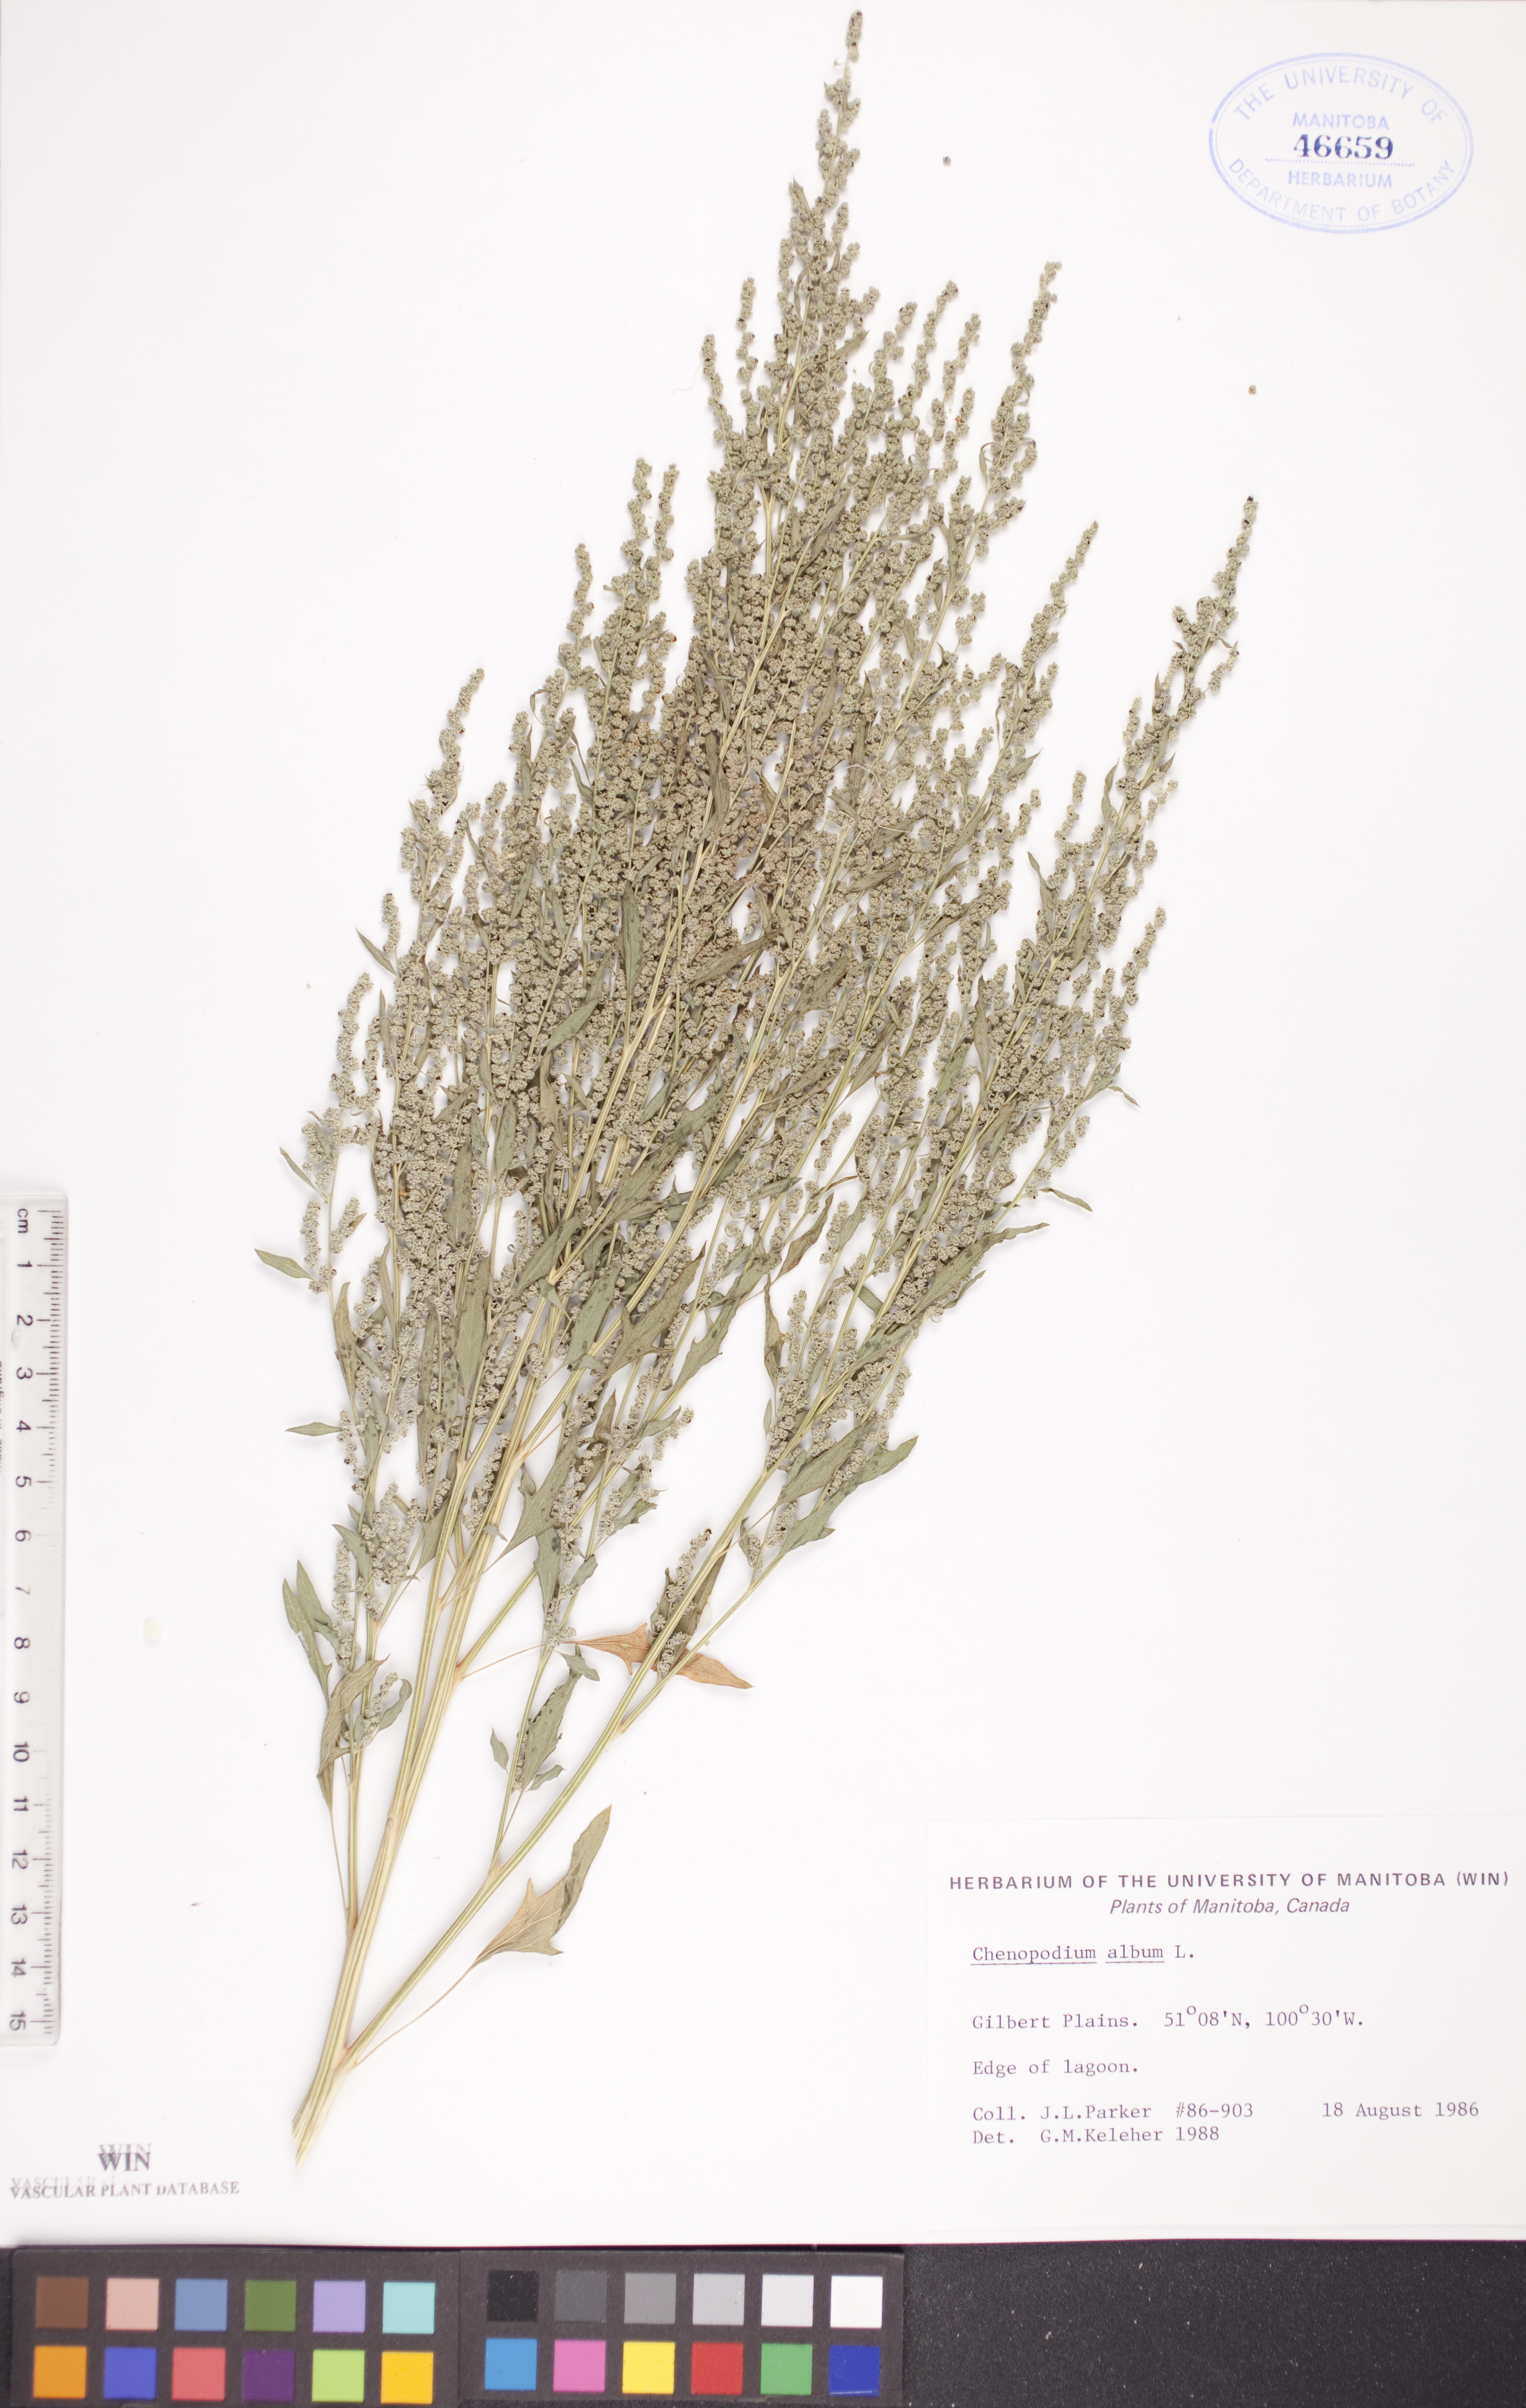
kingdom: Plantae
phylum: Tracheophyta
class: Magnoliopsida
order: Caryophyllales
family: Amaranthaceae
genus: Chenopodium
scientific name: Chenopodium album
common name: Fat-hen
